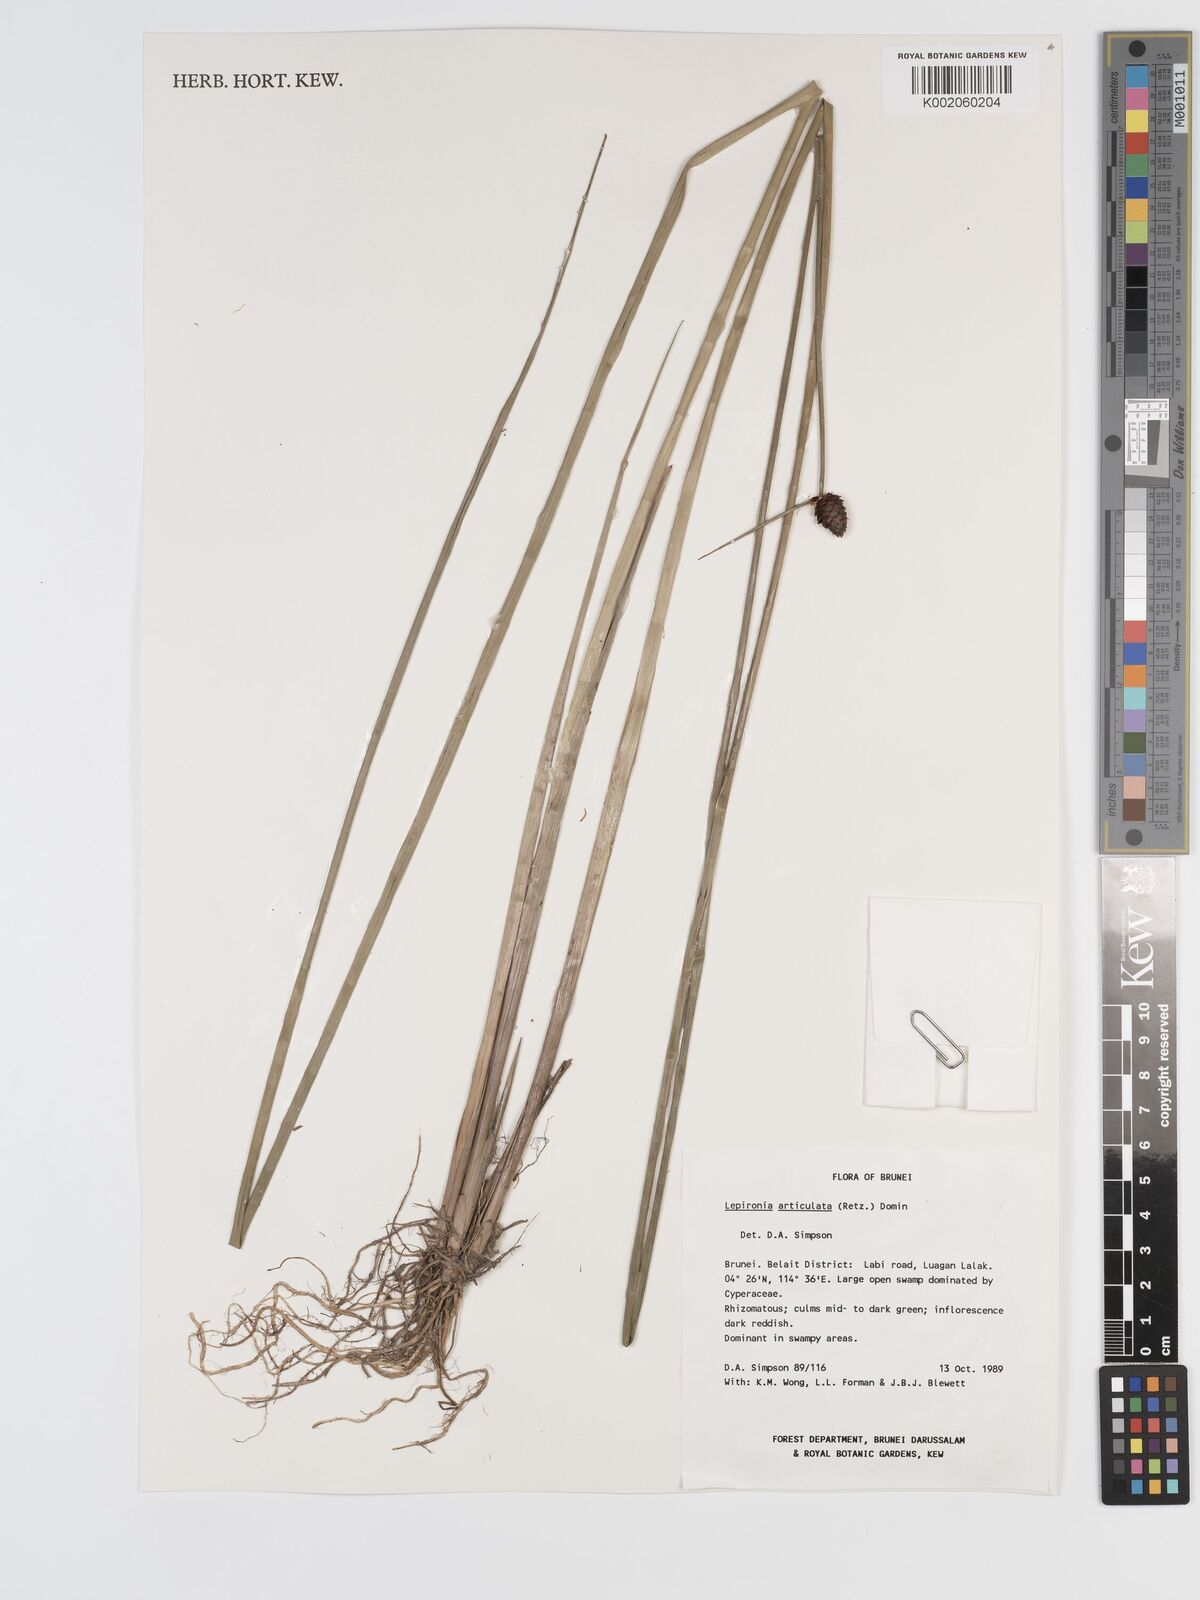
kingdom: Plantae
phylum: Tracheophyta
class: Liliopsida
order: Poales
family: Cyperaceae
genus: Lepironia
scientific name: Lepironia articulata
